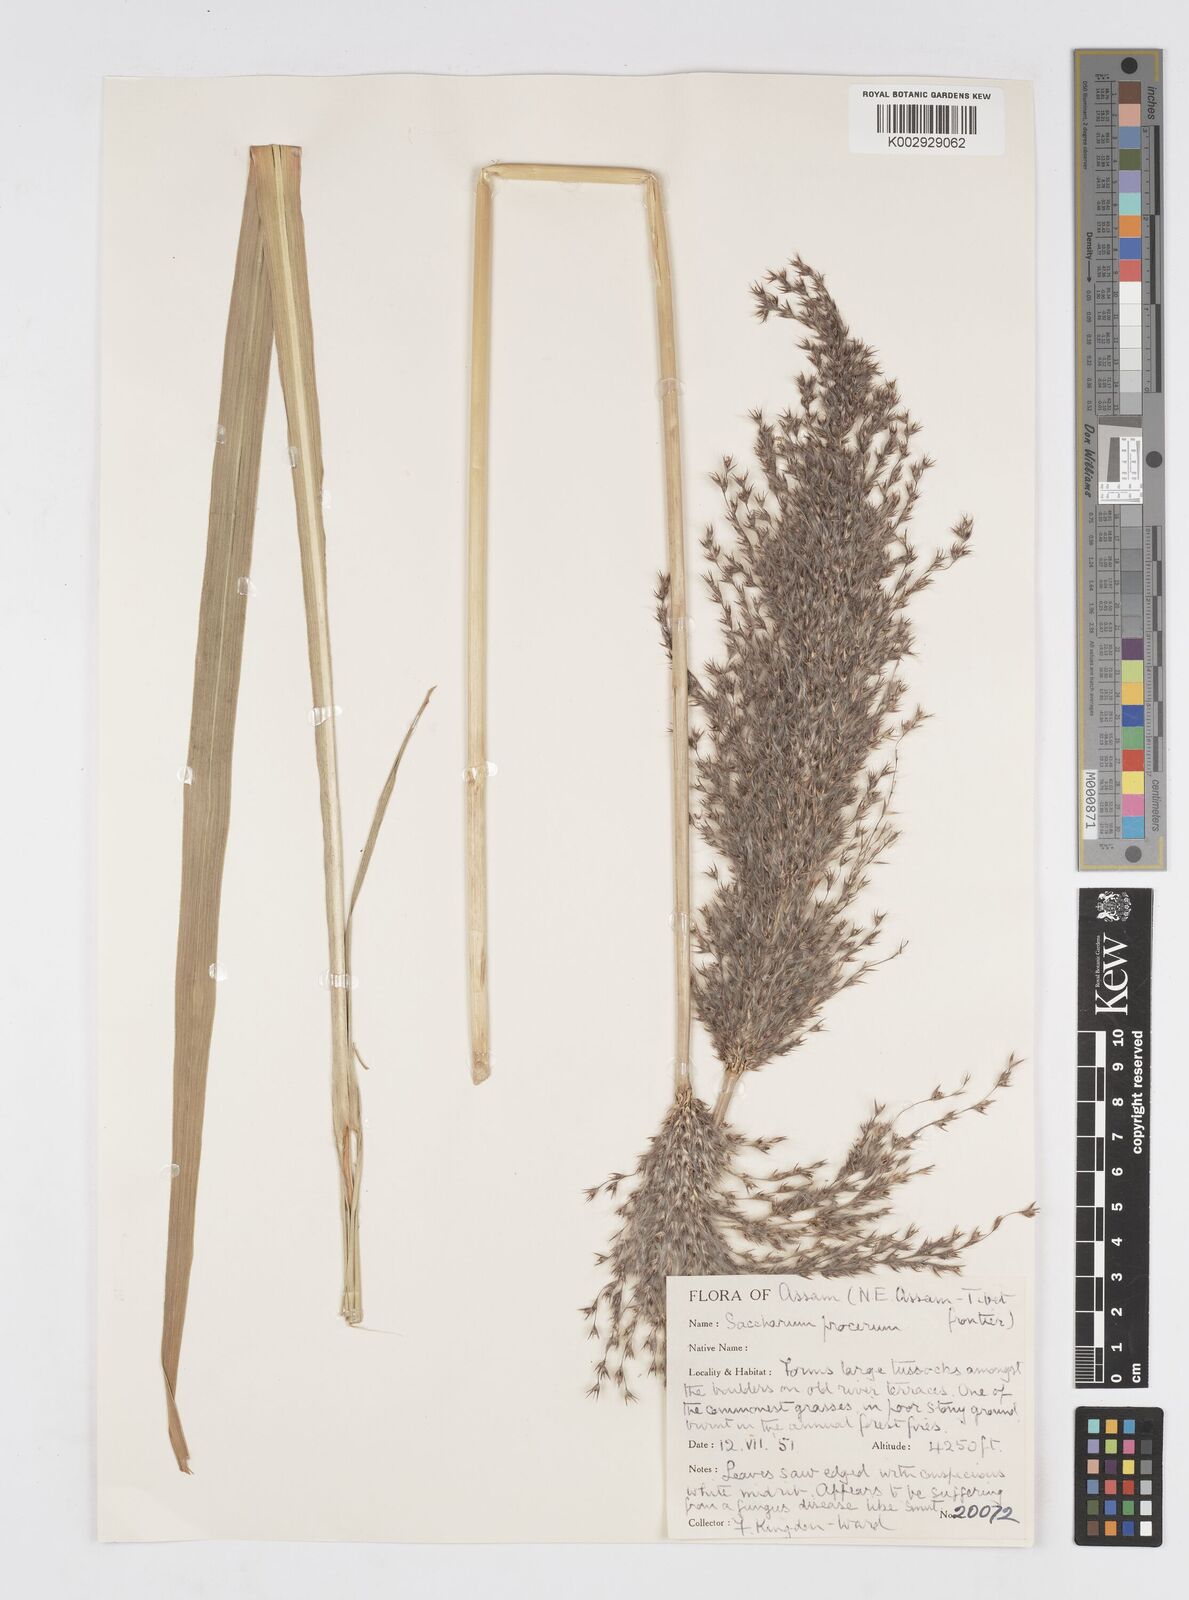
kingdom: Plantae
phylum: Tracheophyta
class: Liliopsida
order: Poales
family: Poaceae
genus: Tripidium
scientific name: Tripidium procerum
